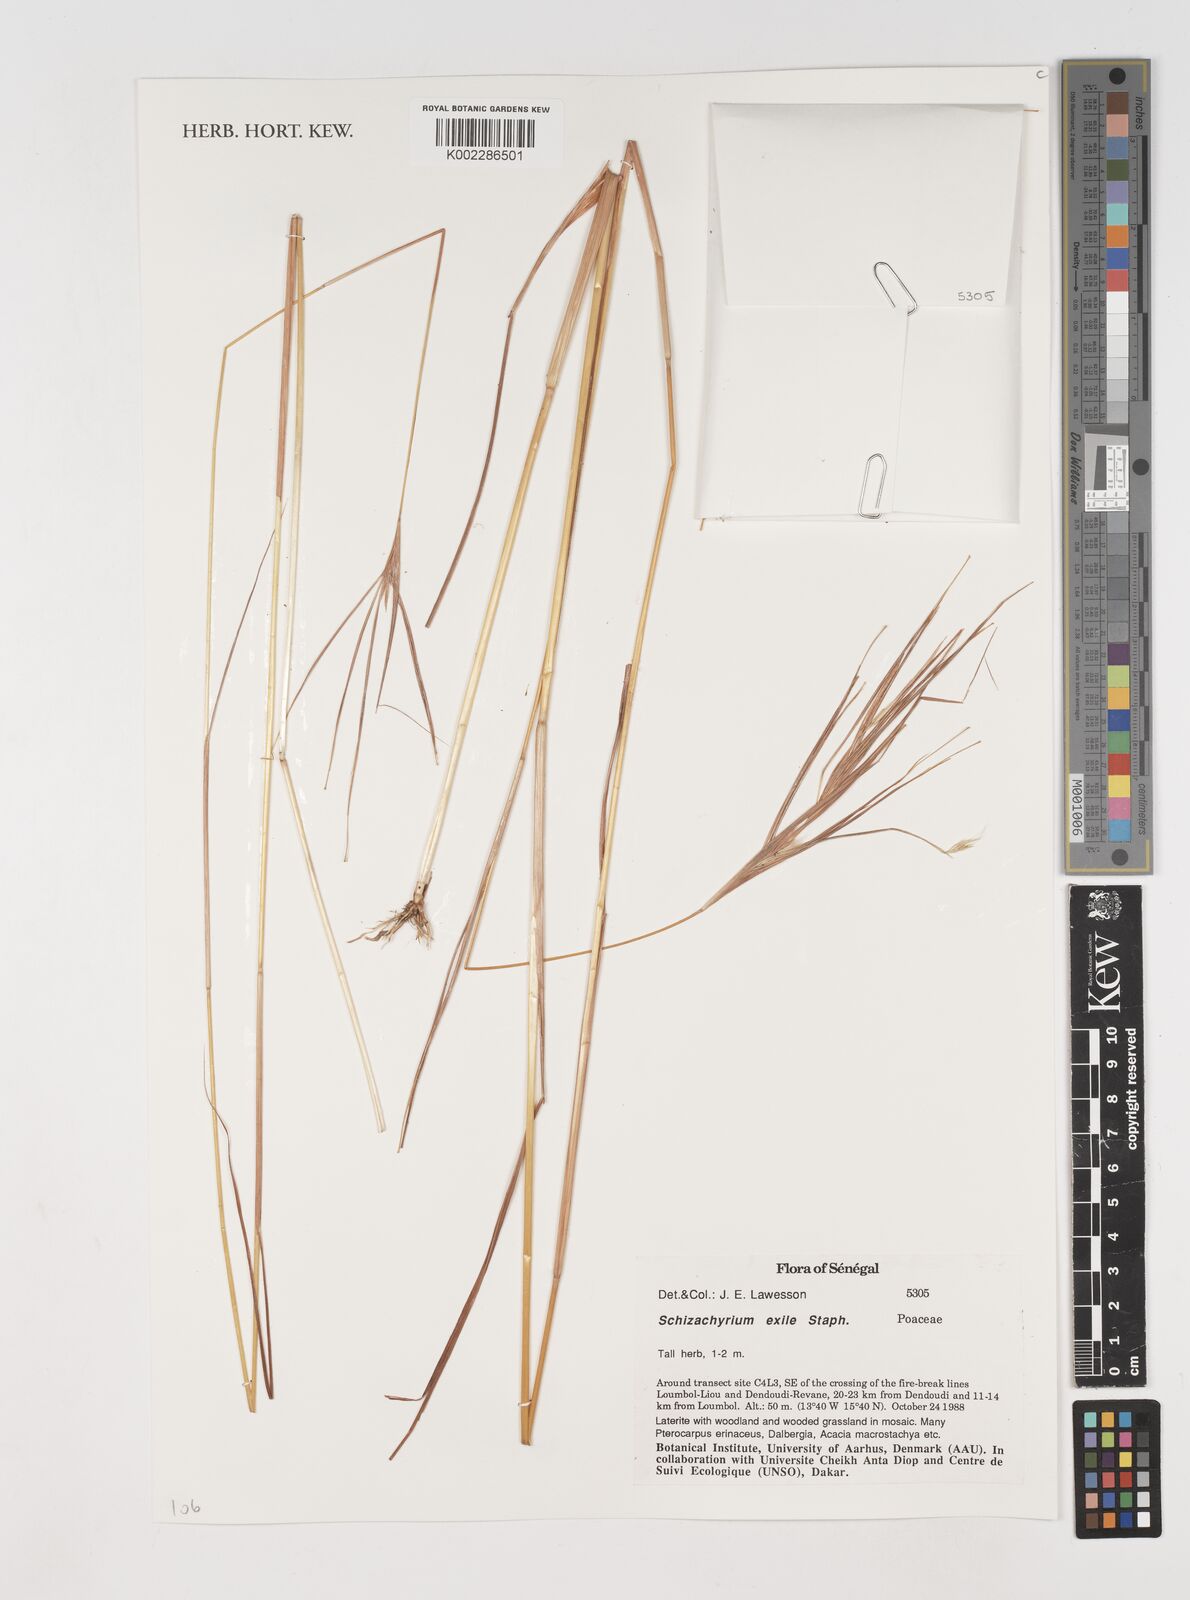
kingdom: Plantae
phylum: Tracheophyta
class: Liliopsida
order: Poales
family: Poaceae
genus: Schizachyrium
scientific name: Schizachyrium exile
